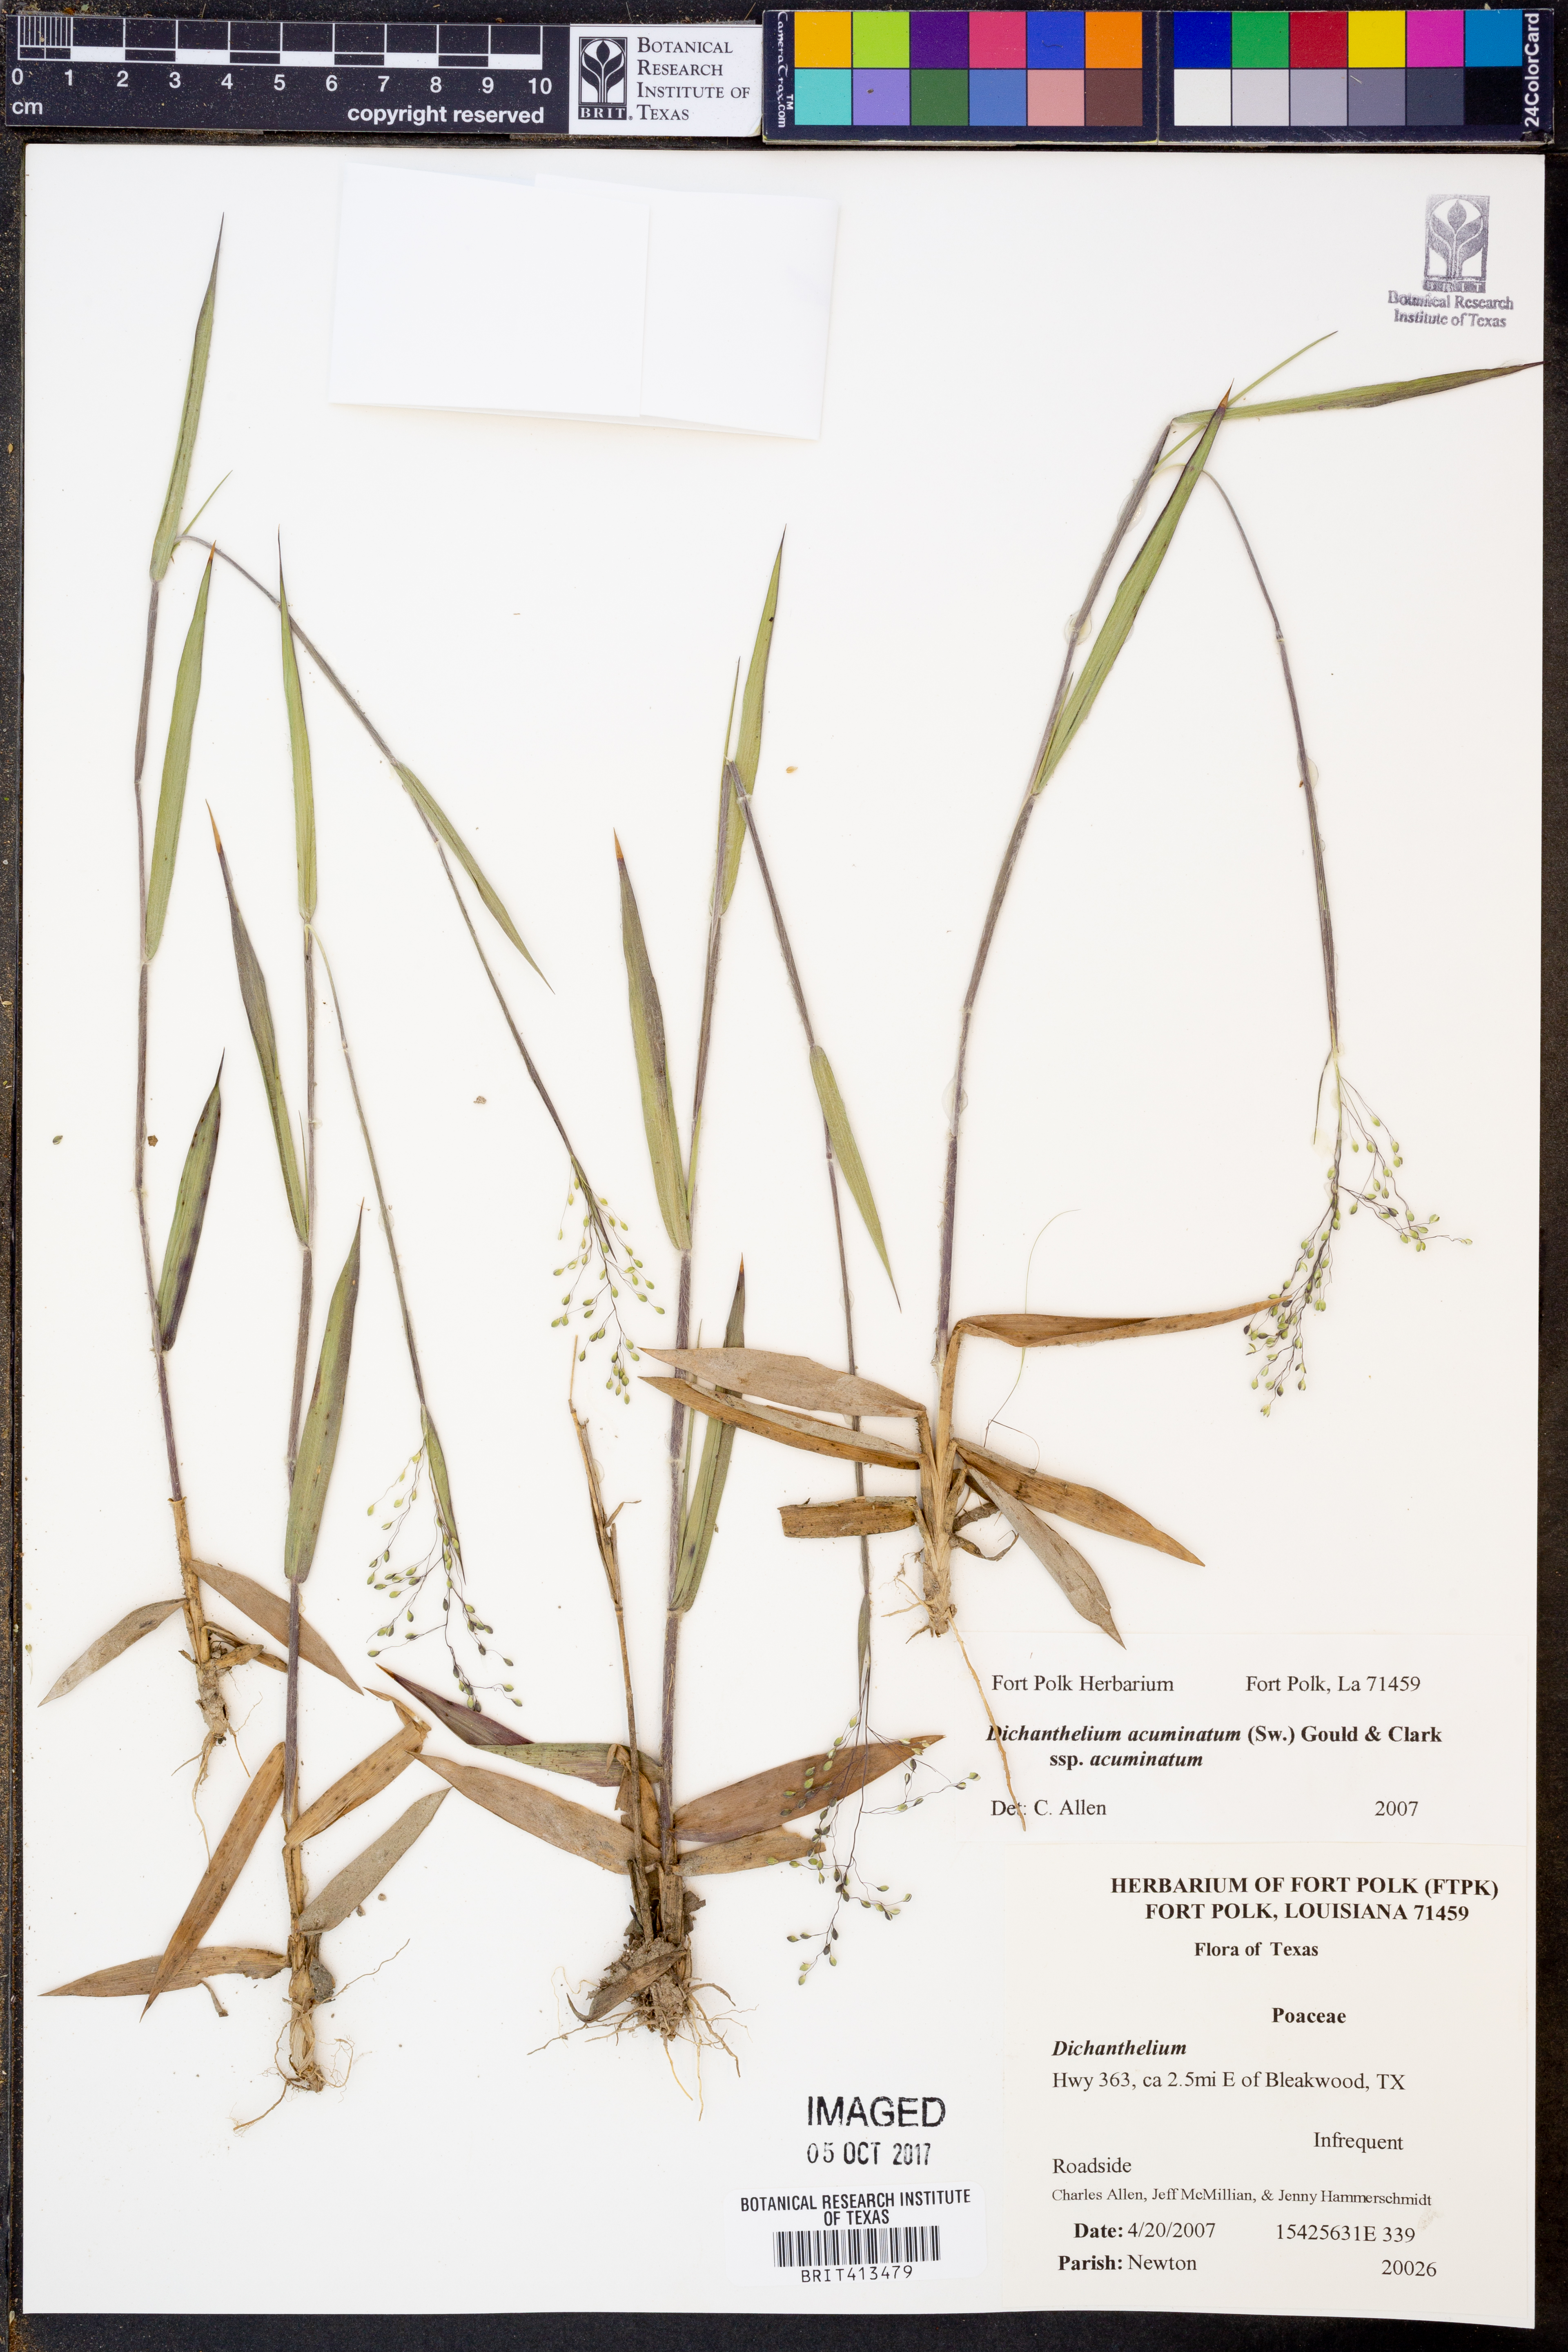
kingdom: Plantae
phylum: Tracheophyta
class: Liliopsida
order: Poales
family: Poaceae
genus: Dichanthelium
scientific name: Dichanthelium acuminatum
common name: Hairy panic grass
